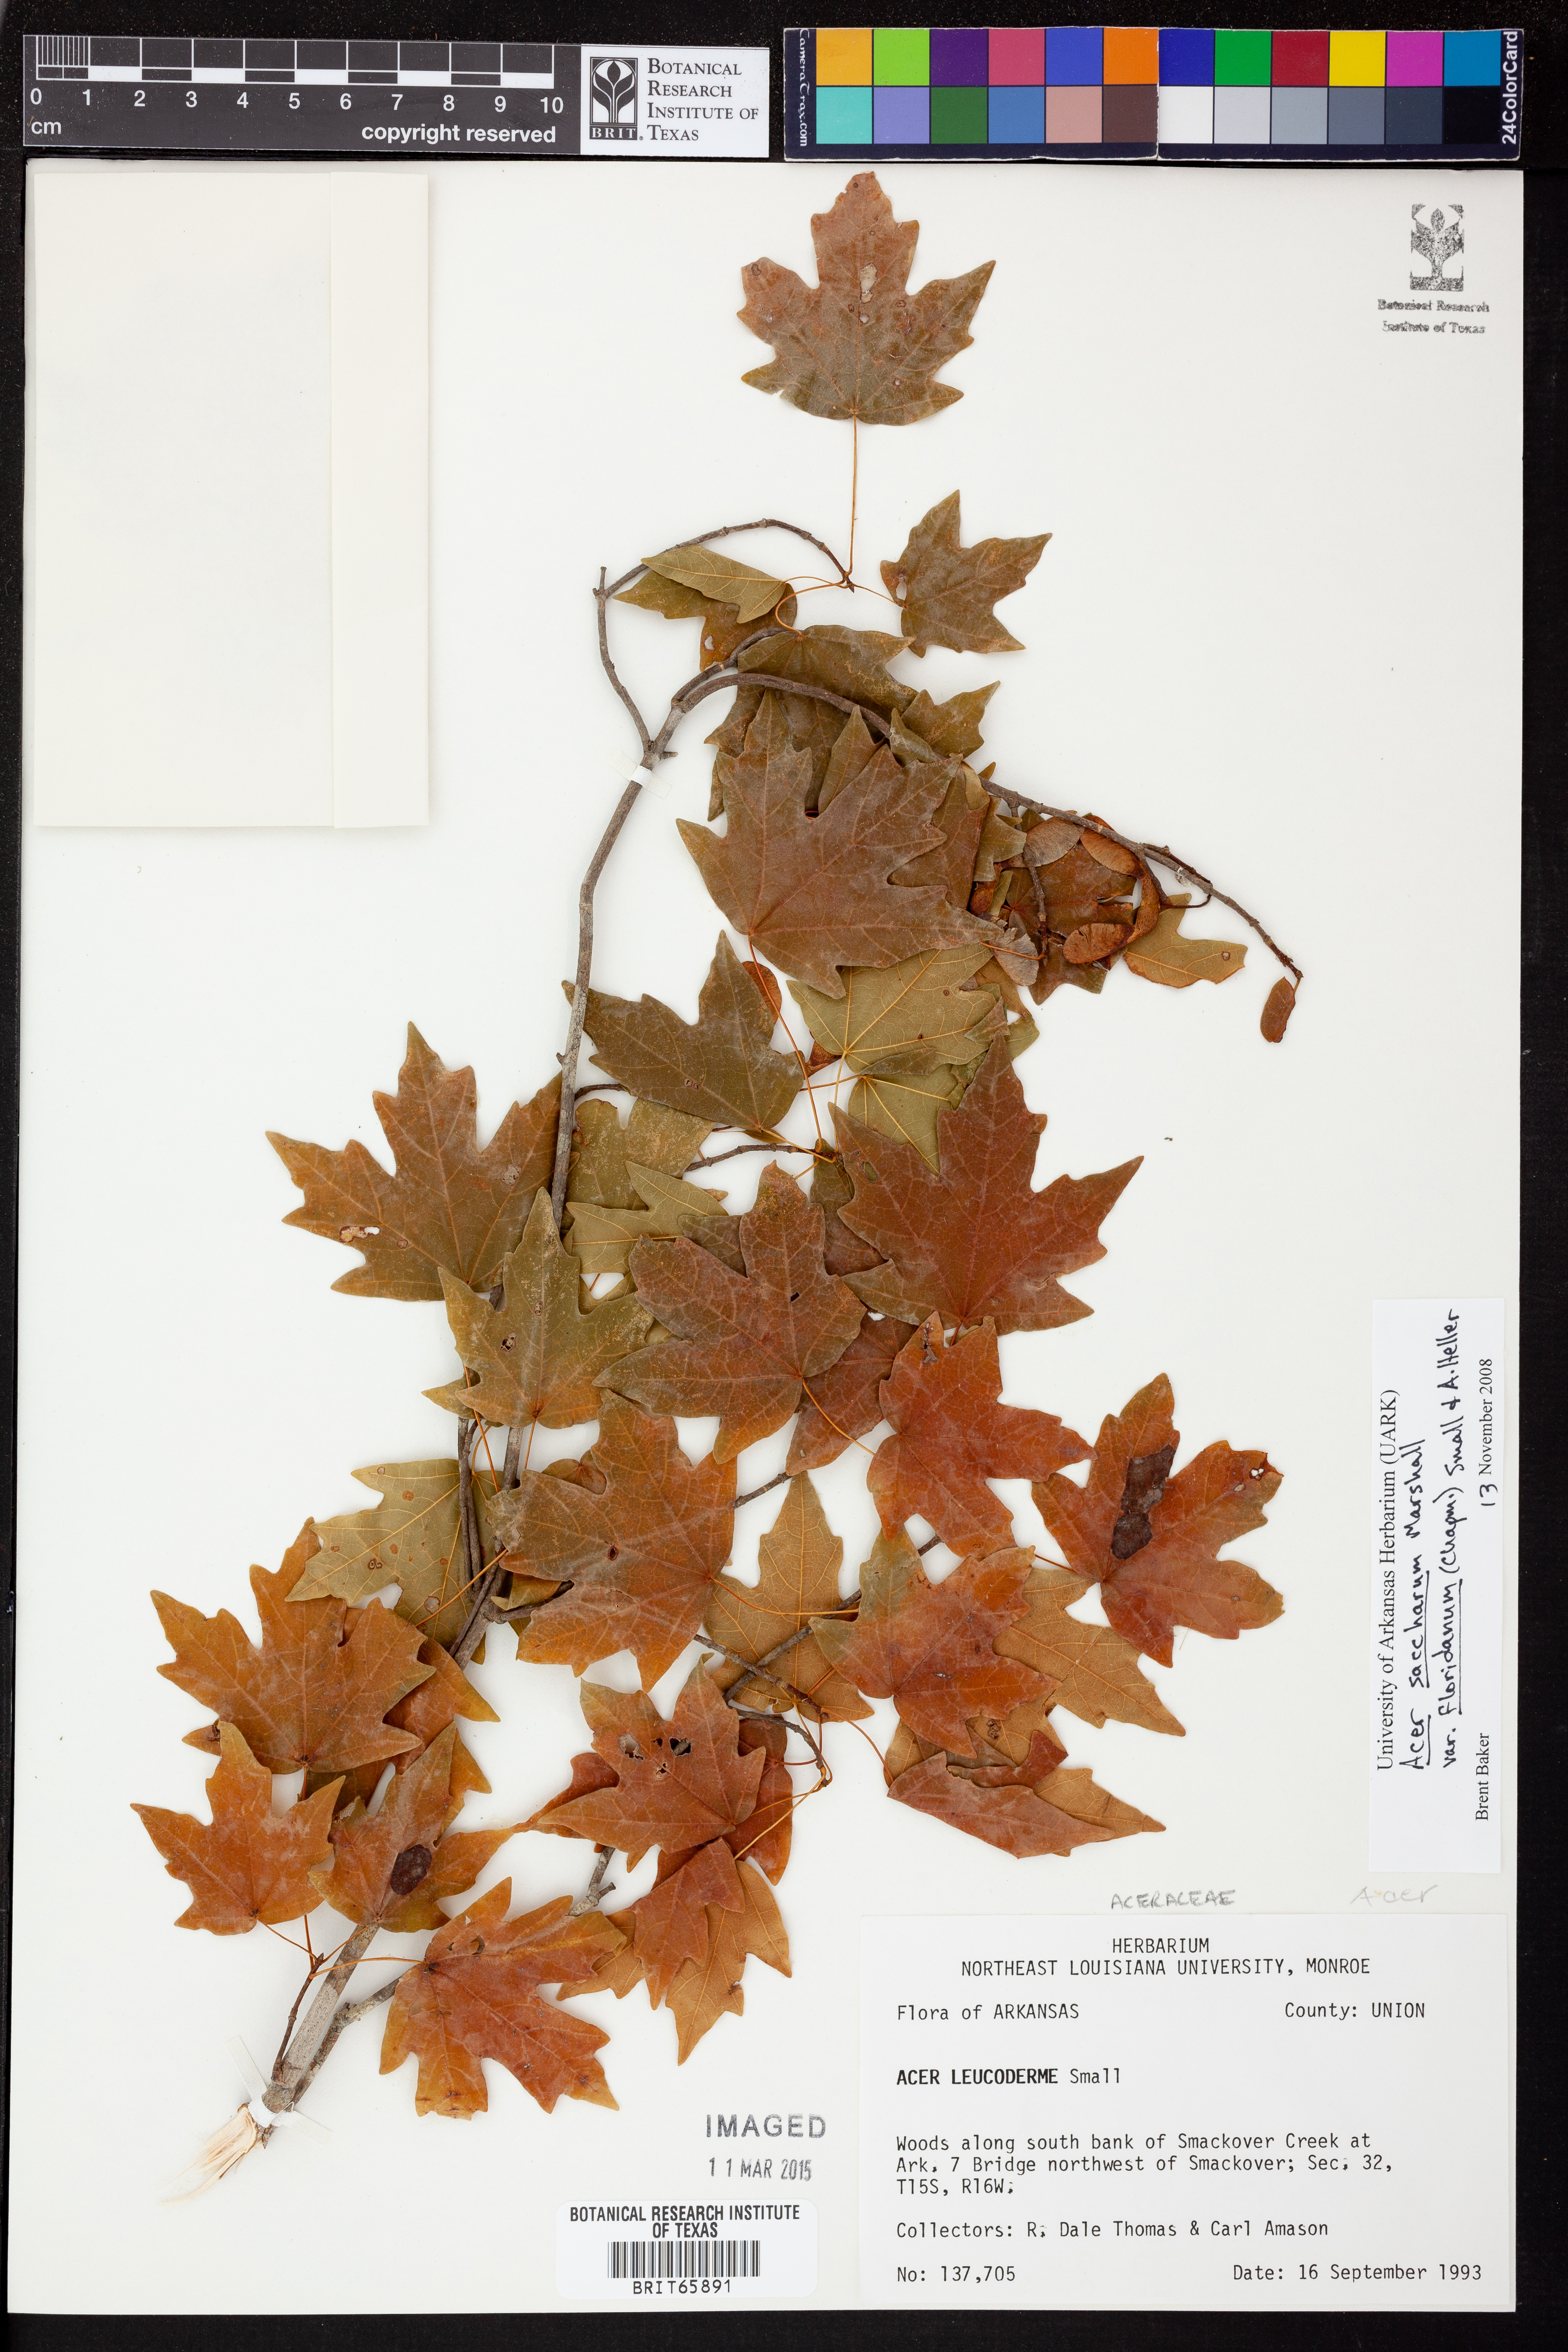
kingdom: Plantae
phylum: Tracheophyta
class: Magnoliopsida
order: Sapindales
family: Sapindaceae
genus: Acer
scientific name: Acer leucoderme
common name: Chalk maple
